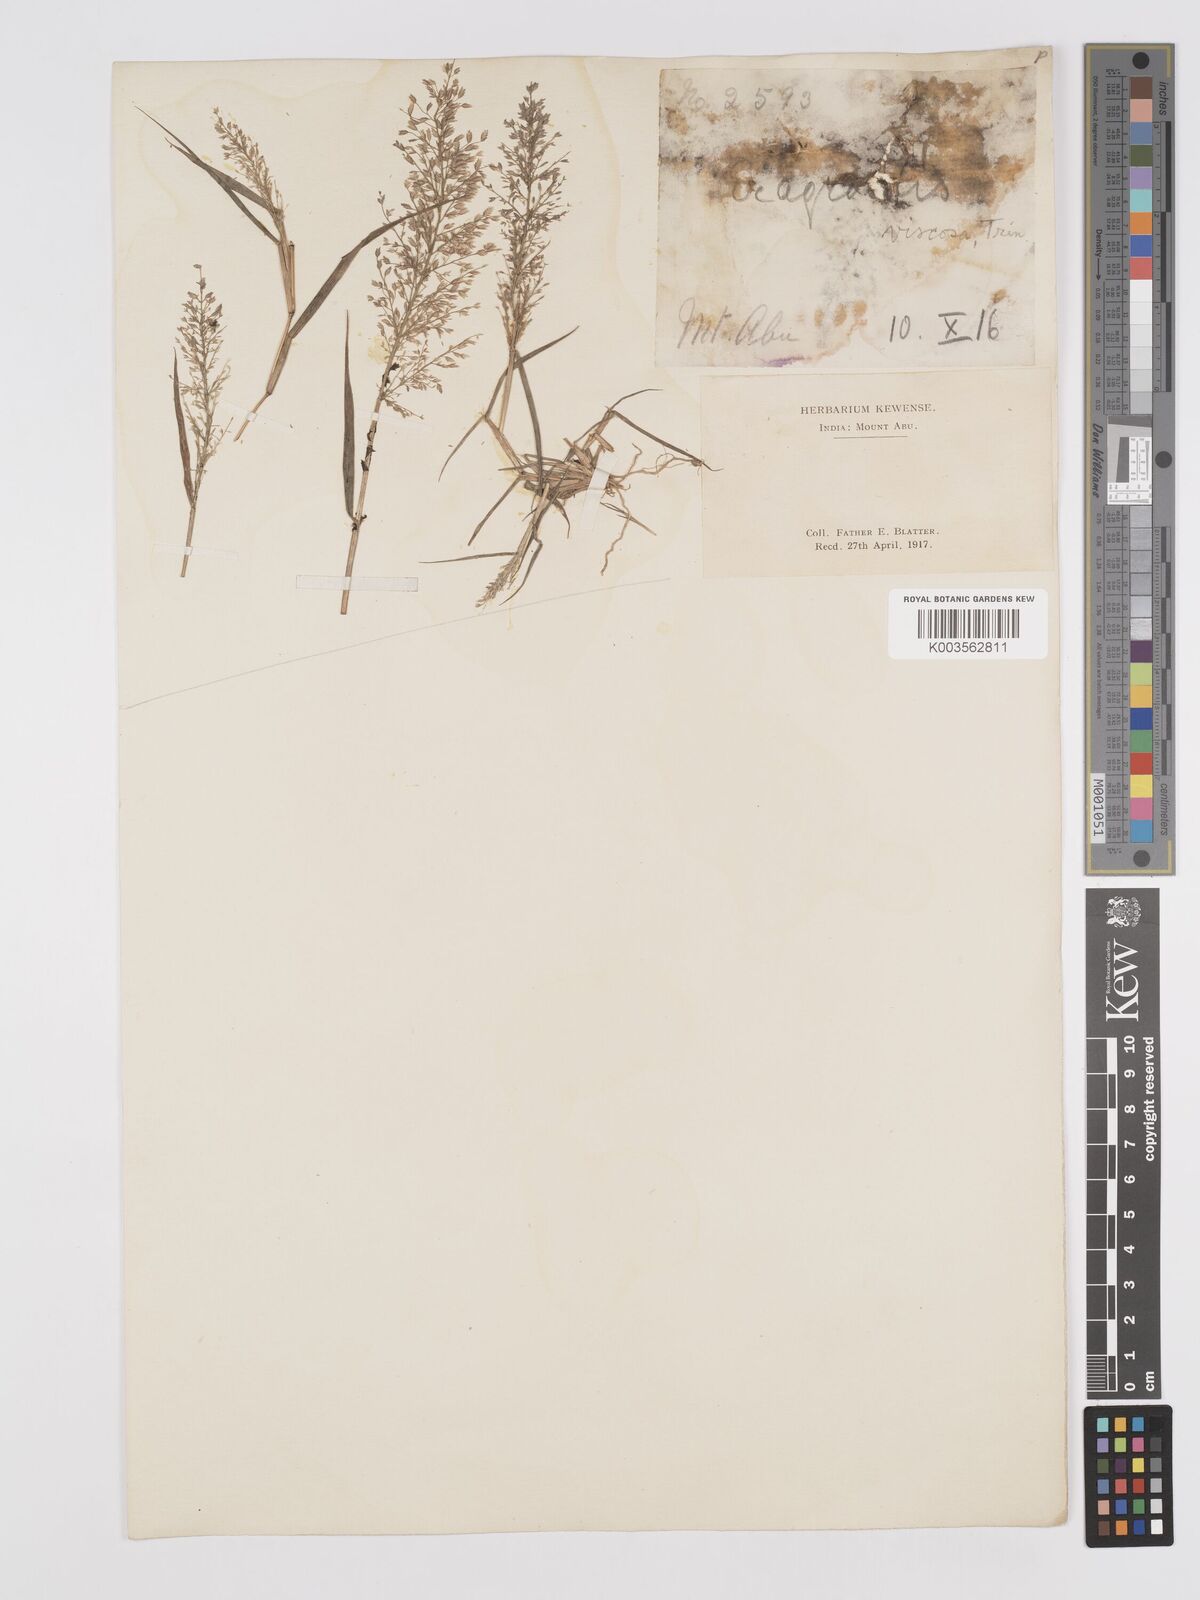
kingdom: Plantae
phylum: Tracheophyta
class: Liliopsida
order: Poales
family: Poaceae
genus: Eragrostis
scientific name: Eragrostis viscosa
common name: Sticky love grass
